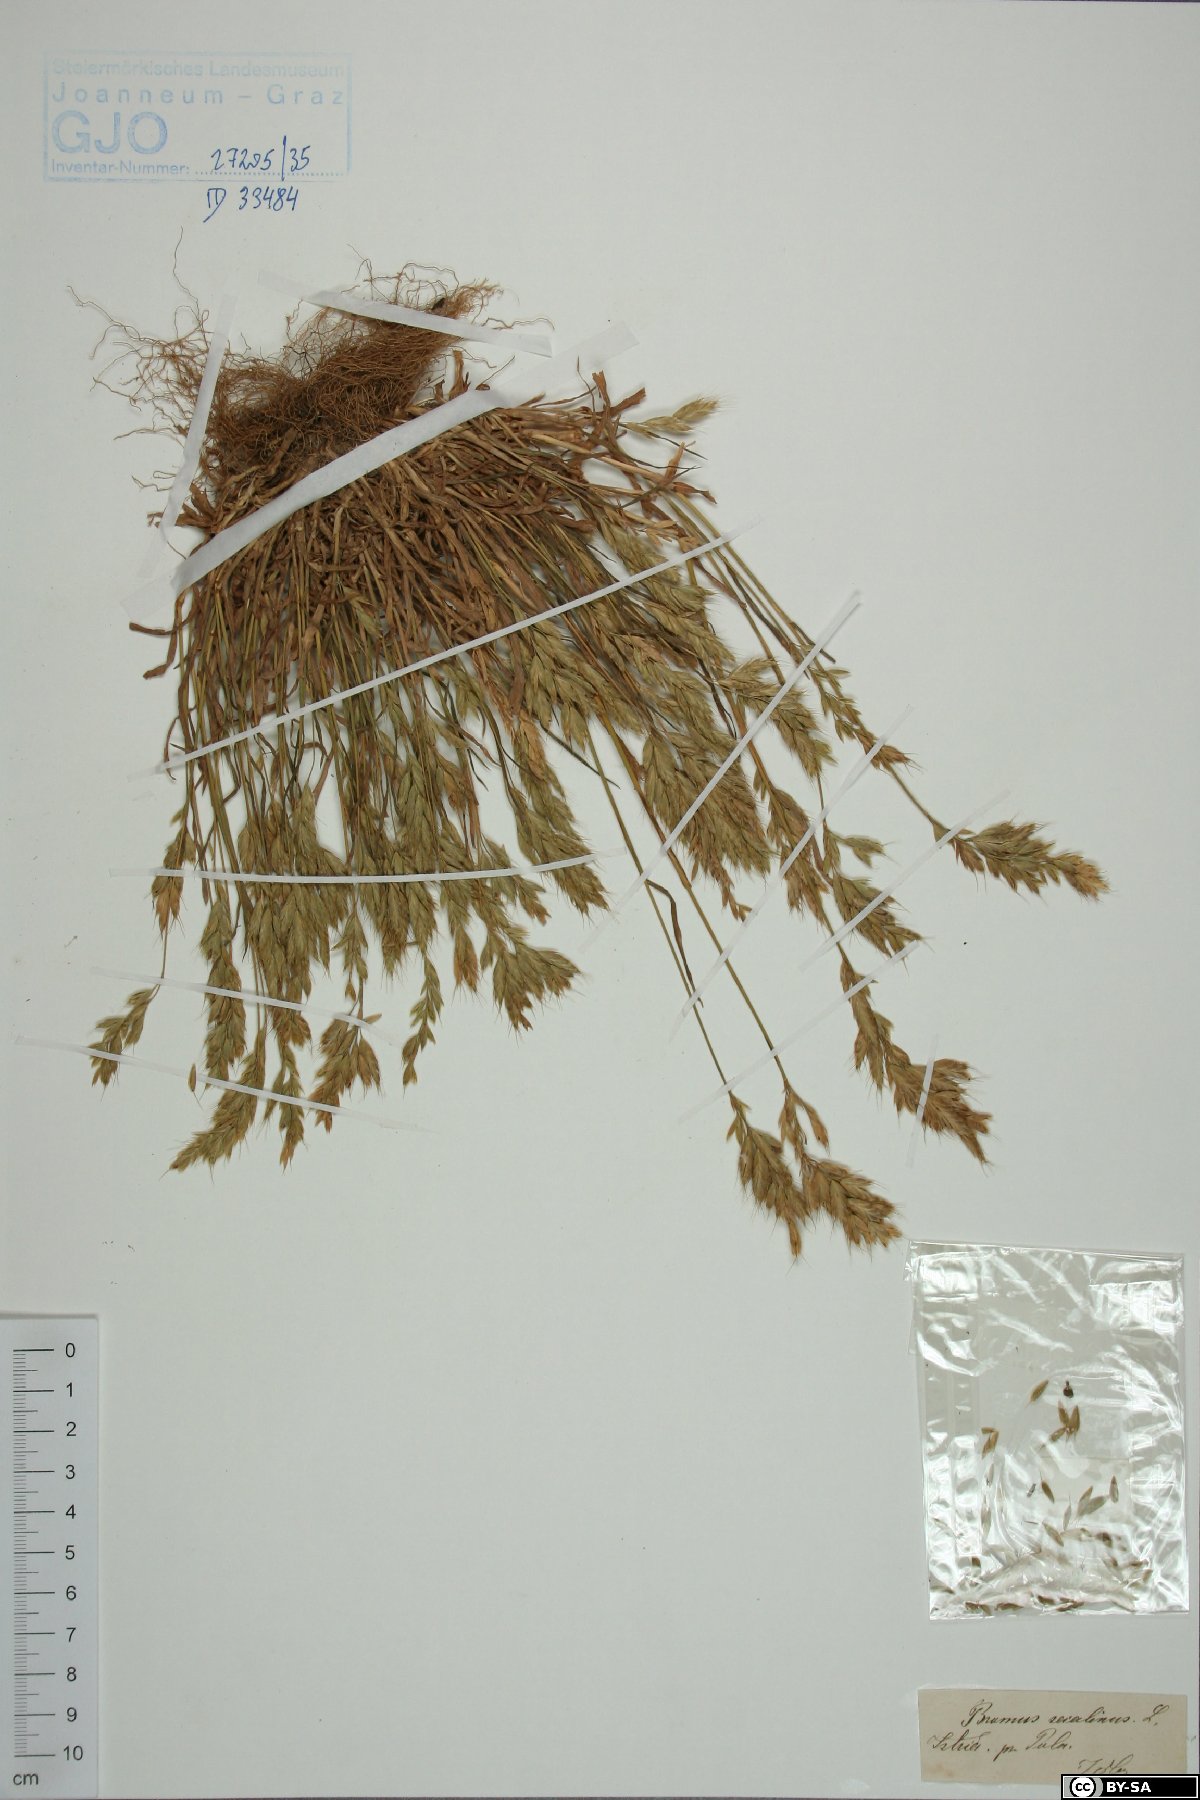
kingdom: Plantae
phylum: Tracheophyta
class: Liliopsida
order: Poales
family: Poaceae
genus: Bromus
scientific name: Bromus secalinus
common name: Rye brome
